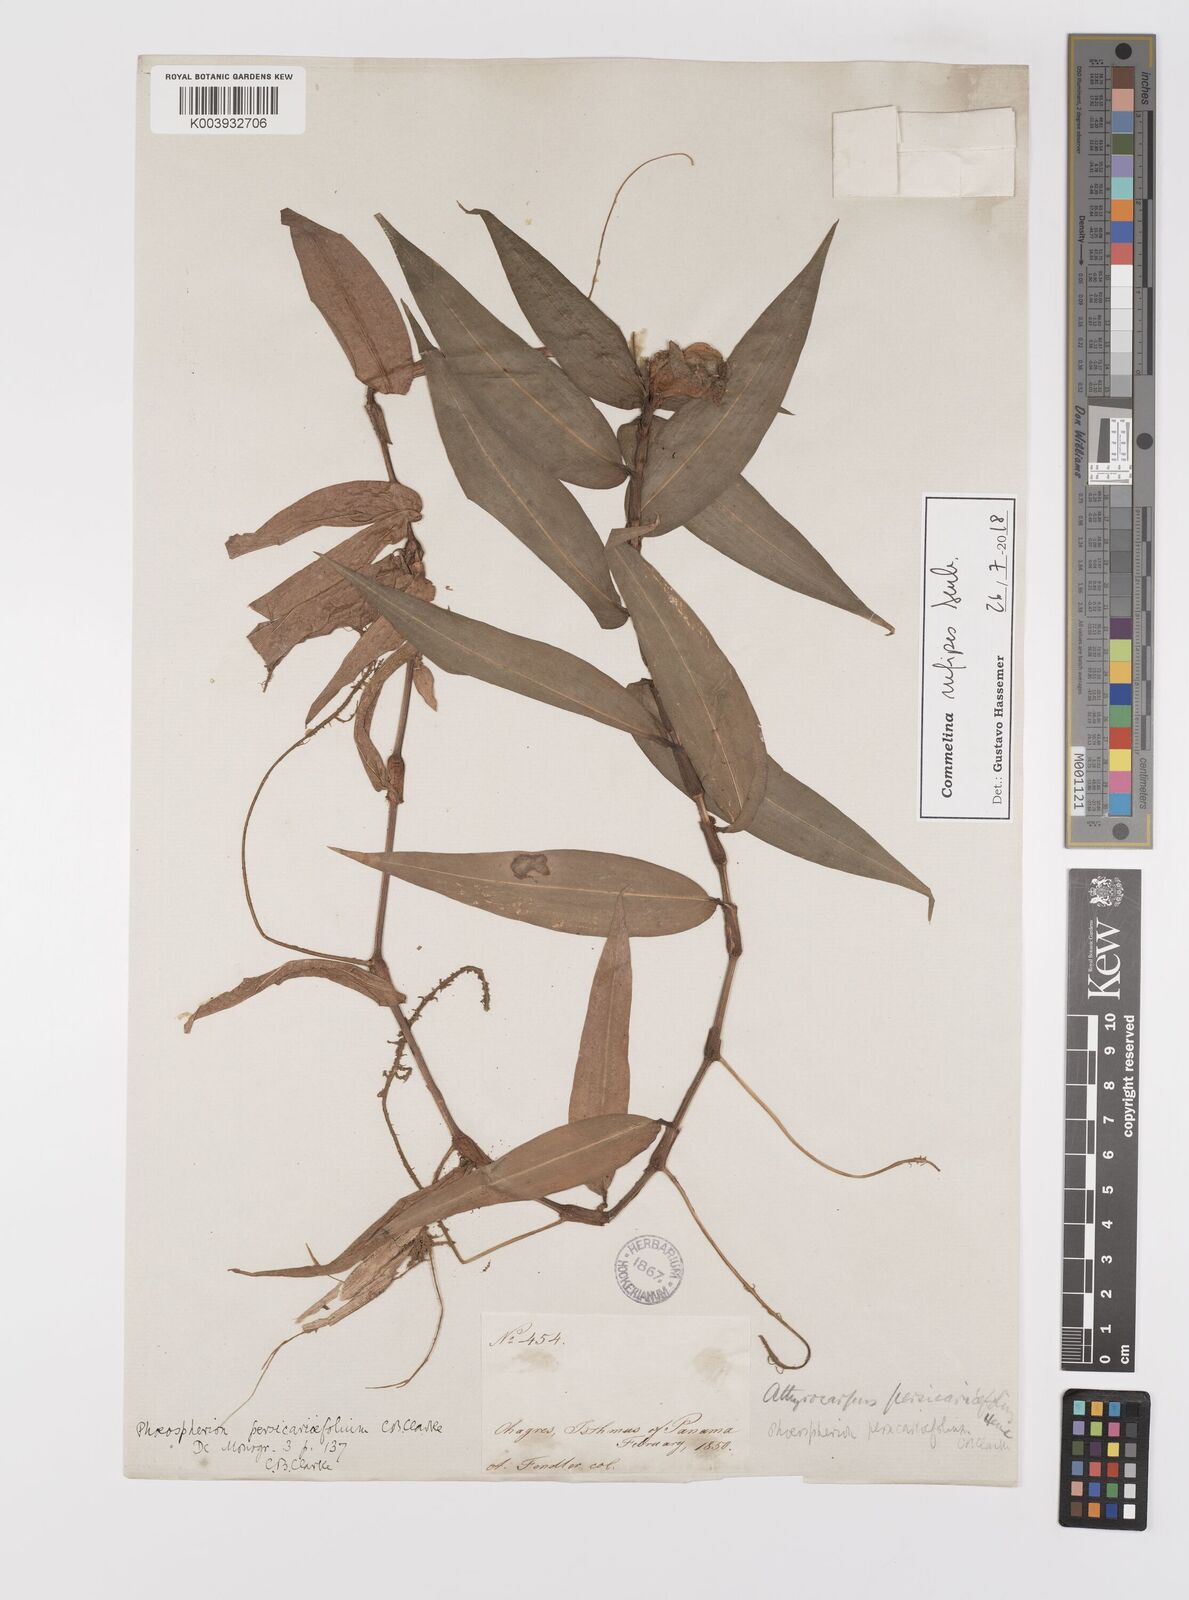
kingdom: Plantae
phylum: Tracheophyta
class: Liliopsida
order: Commelinales
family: Commelinaceae
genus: Commelina
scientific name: Commelina rufipes
